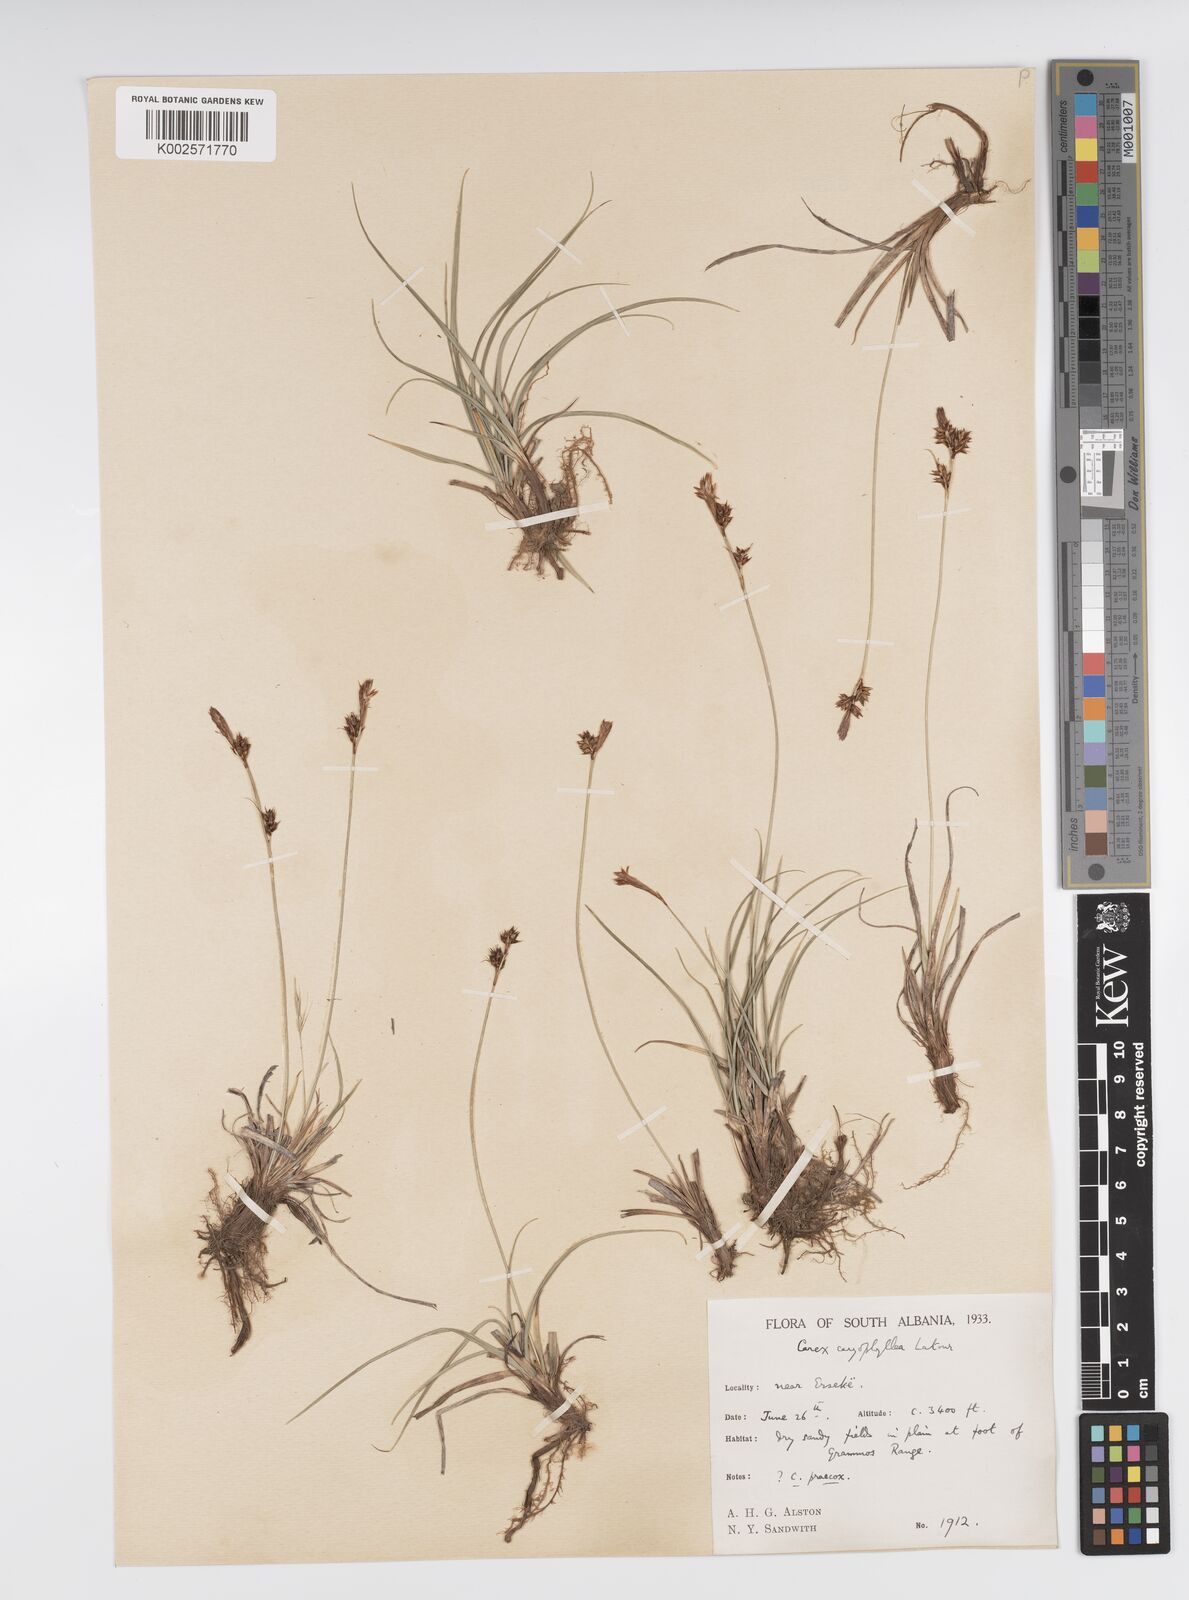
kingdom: Plantae
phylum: Tracheophyta
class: Liliopsida
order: Poales
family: Cyperaceae
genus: Carex
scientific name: Carex caryophyllea
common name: Spring sedge
